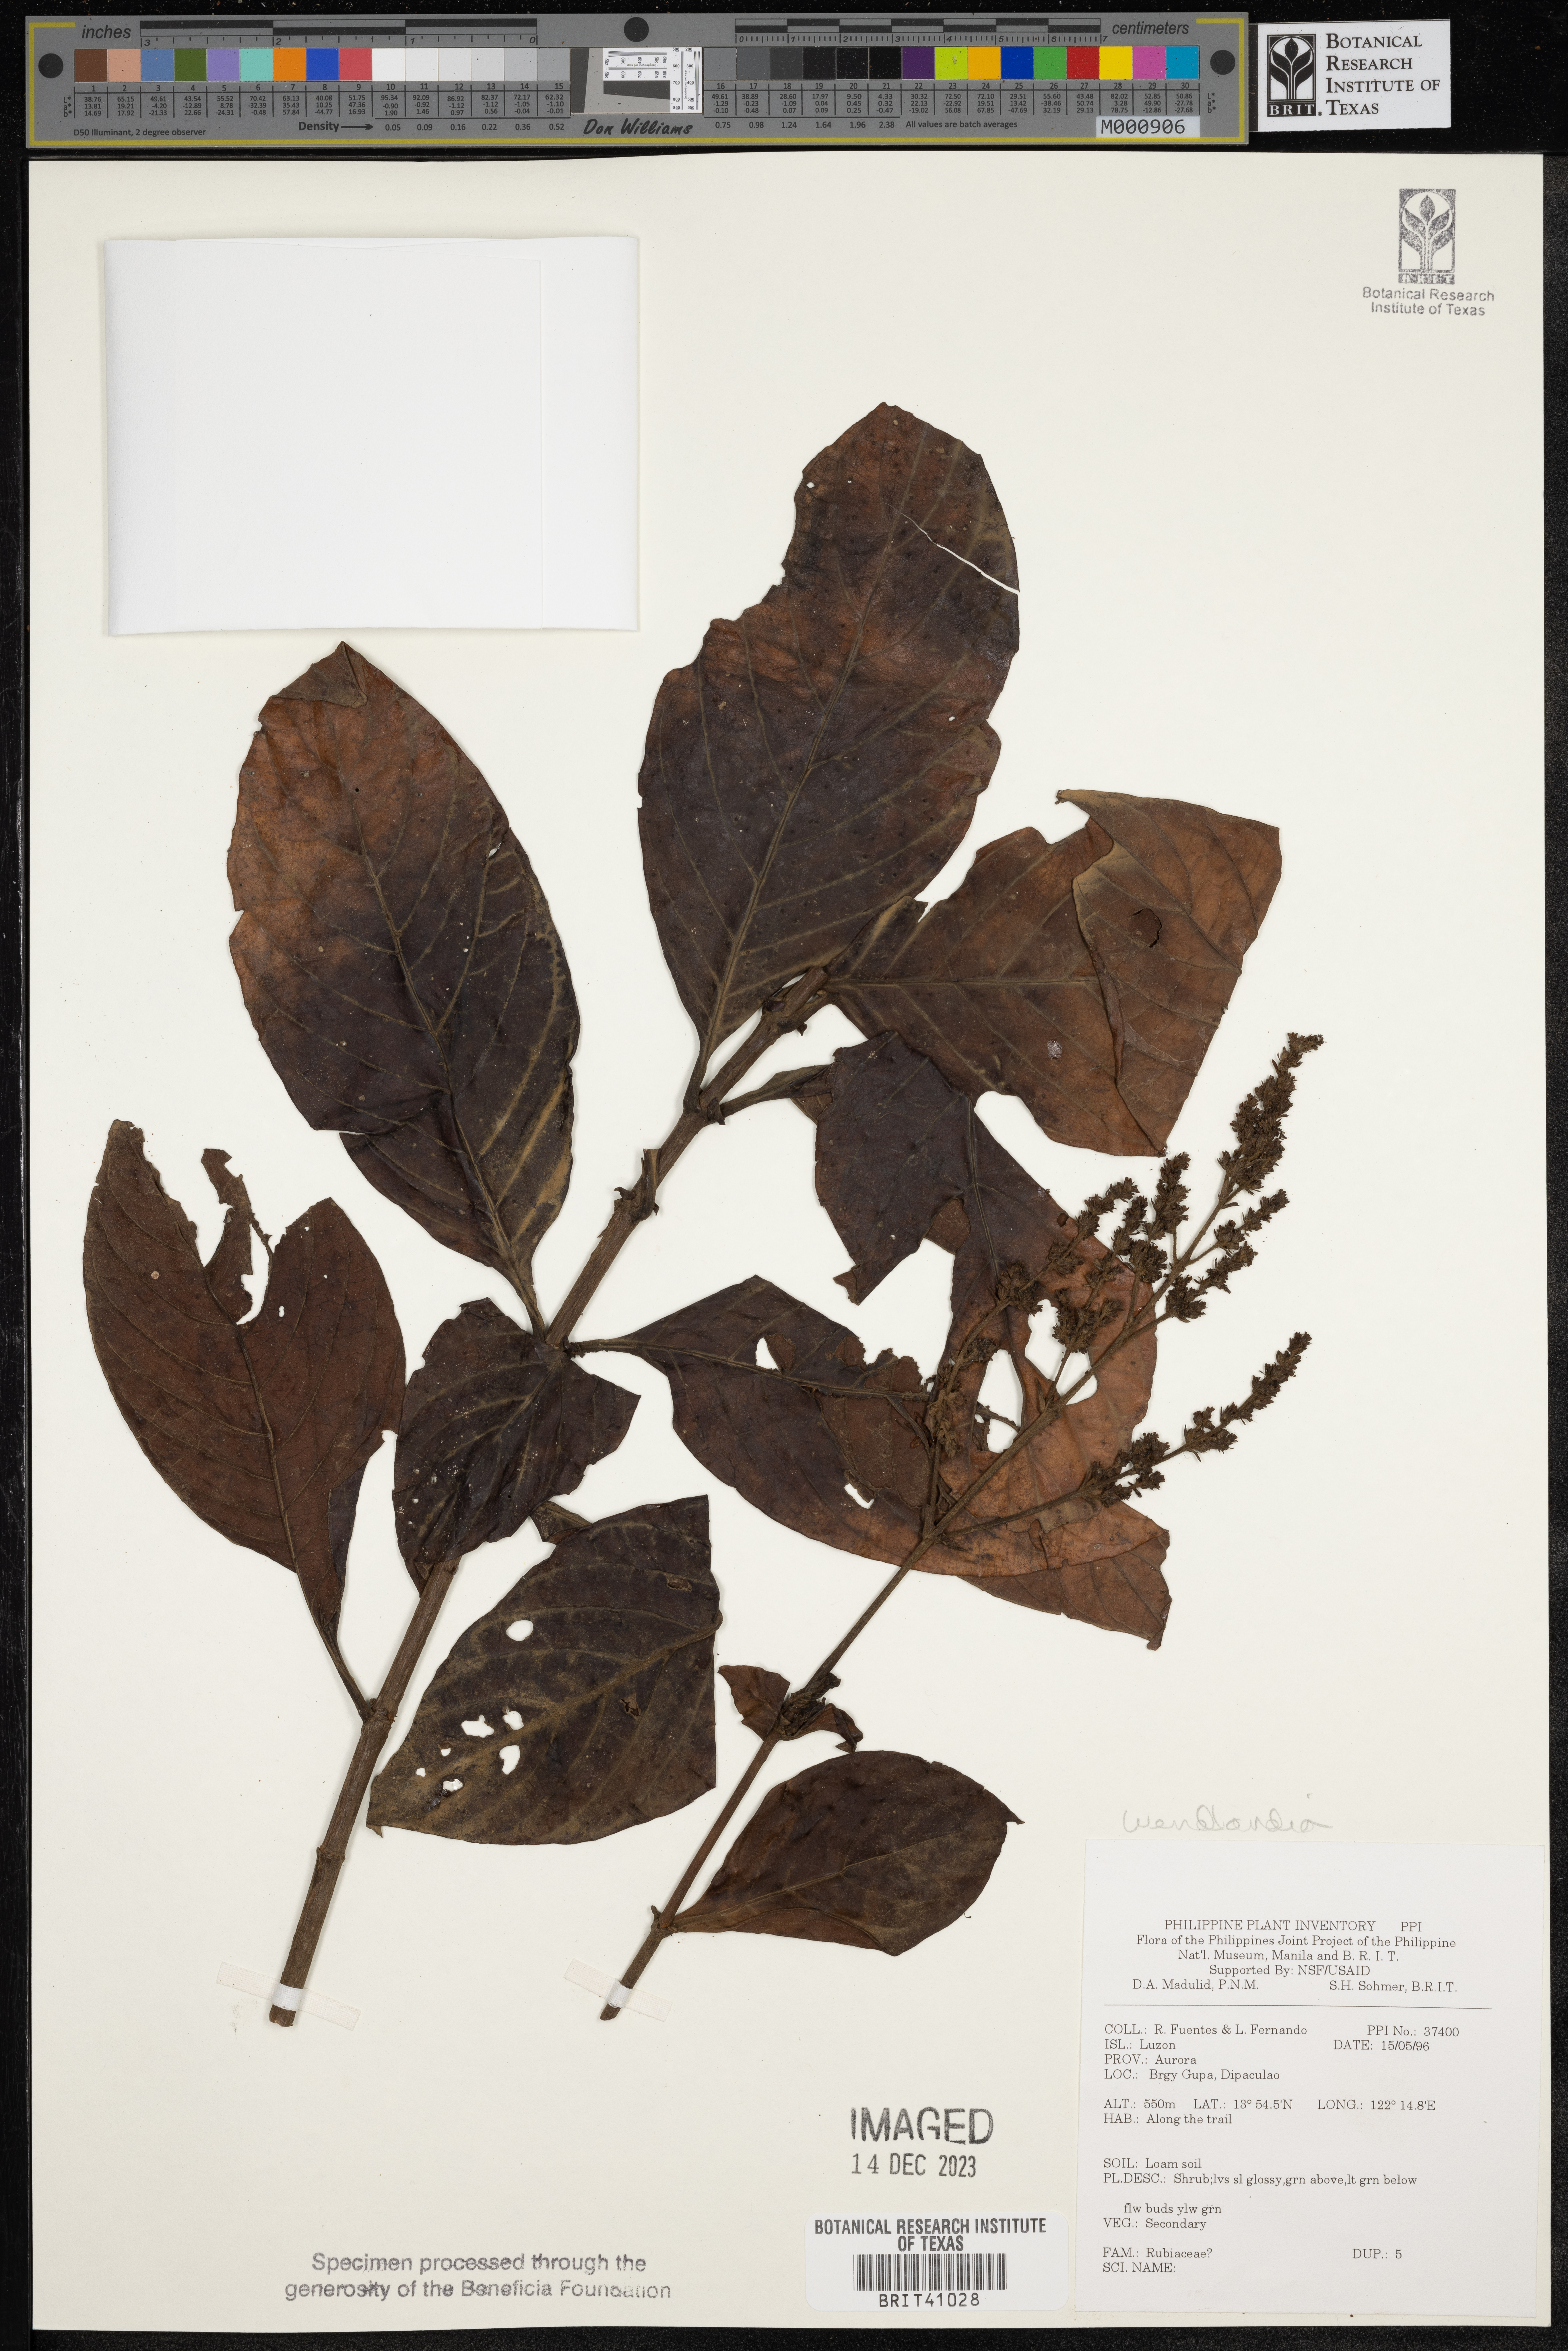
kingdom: Plantae
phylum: Tracheophyta
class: Magnoliopsida
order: Gentianales
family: Rubiaceae
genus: Wendlandia
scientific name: Wendlandia
